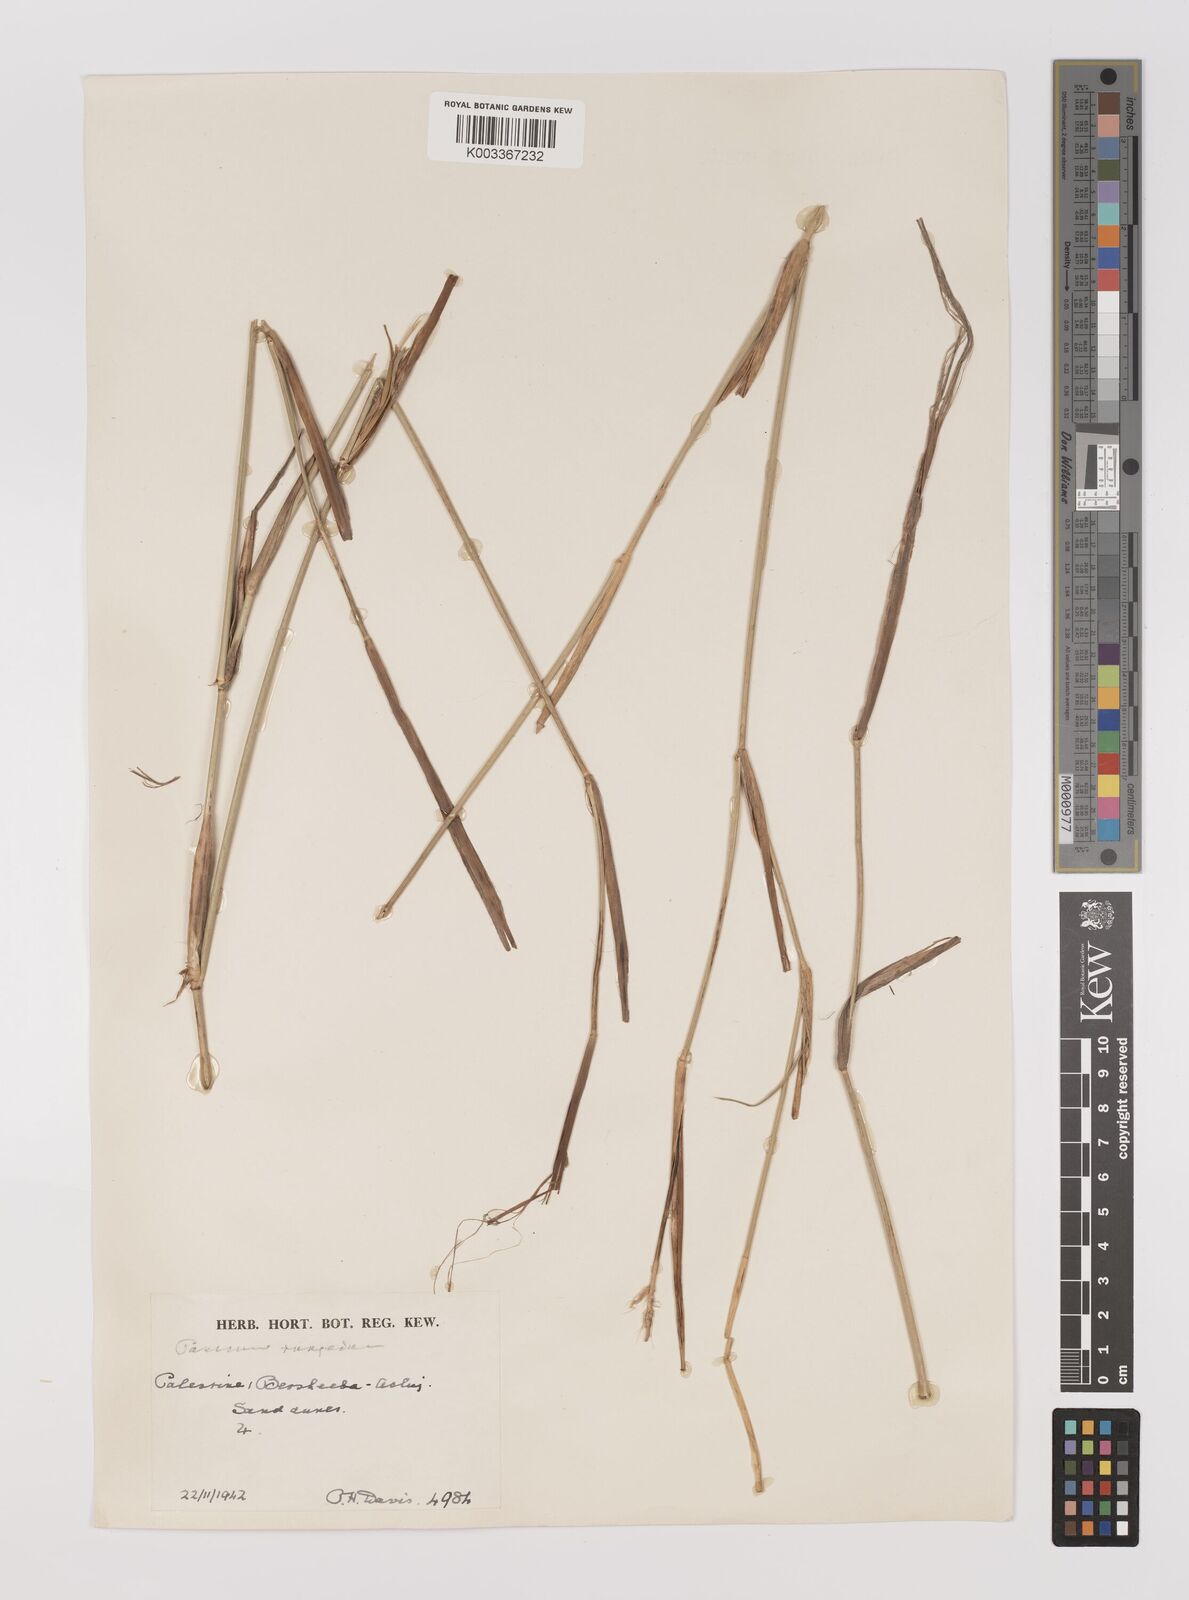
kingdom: Plantae
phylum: Tracheophyta
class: Liliopsida
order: Poales
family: Poaceae
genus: Panicum
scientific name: Panicum turgidum
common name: Desert grass
